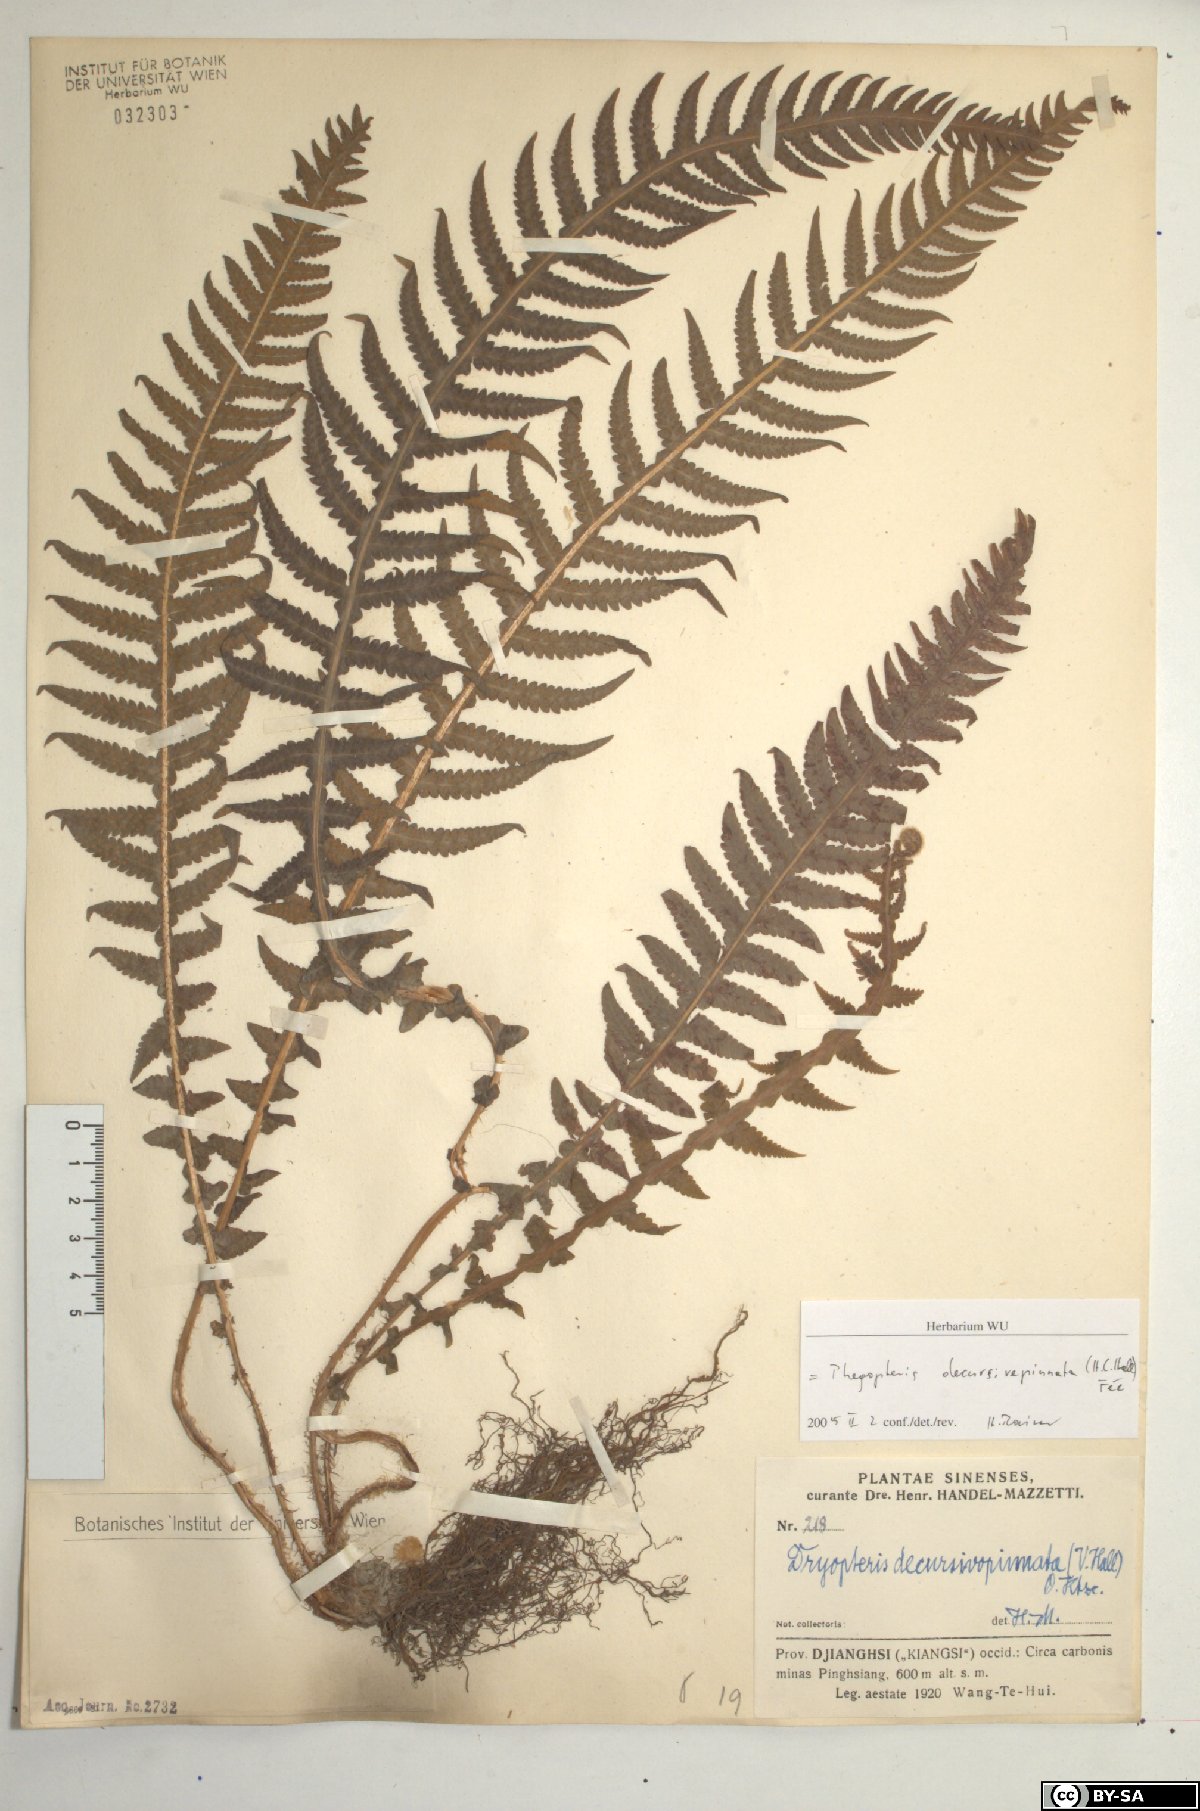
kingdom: Plantae
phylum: Tracheophyta
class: Polypodiopsida
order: Polypodiales
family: Thelypteridaceae
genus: Phegopteris
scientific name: Phegopteris decursive-pinnata
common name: Japanese beech fern
